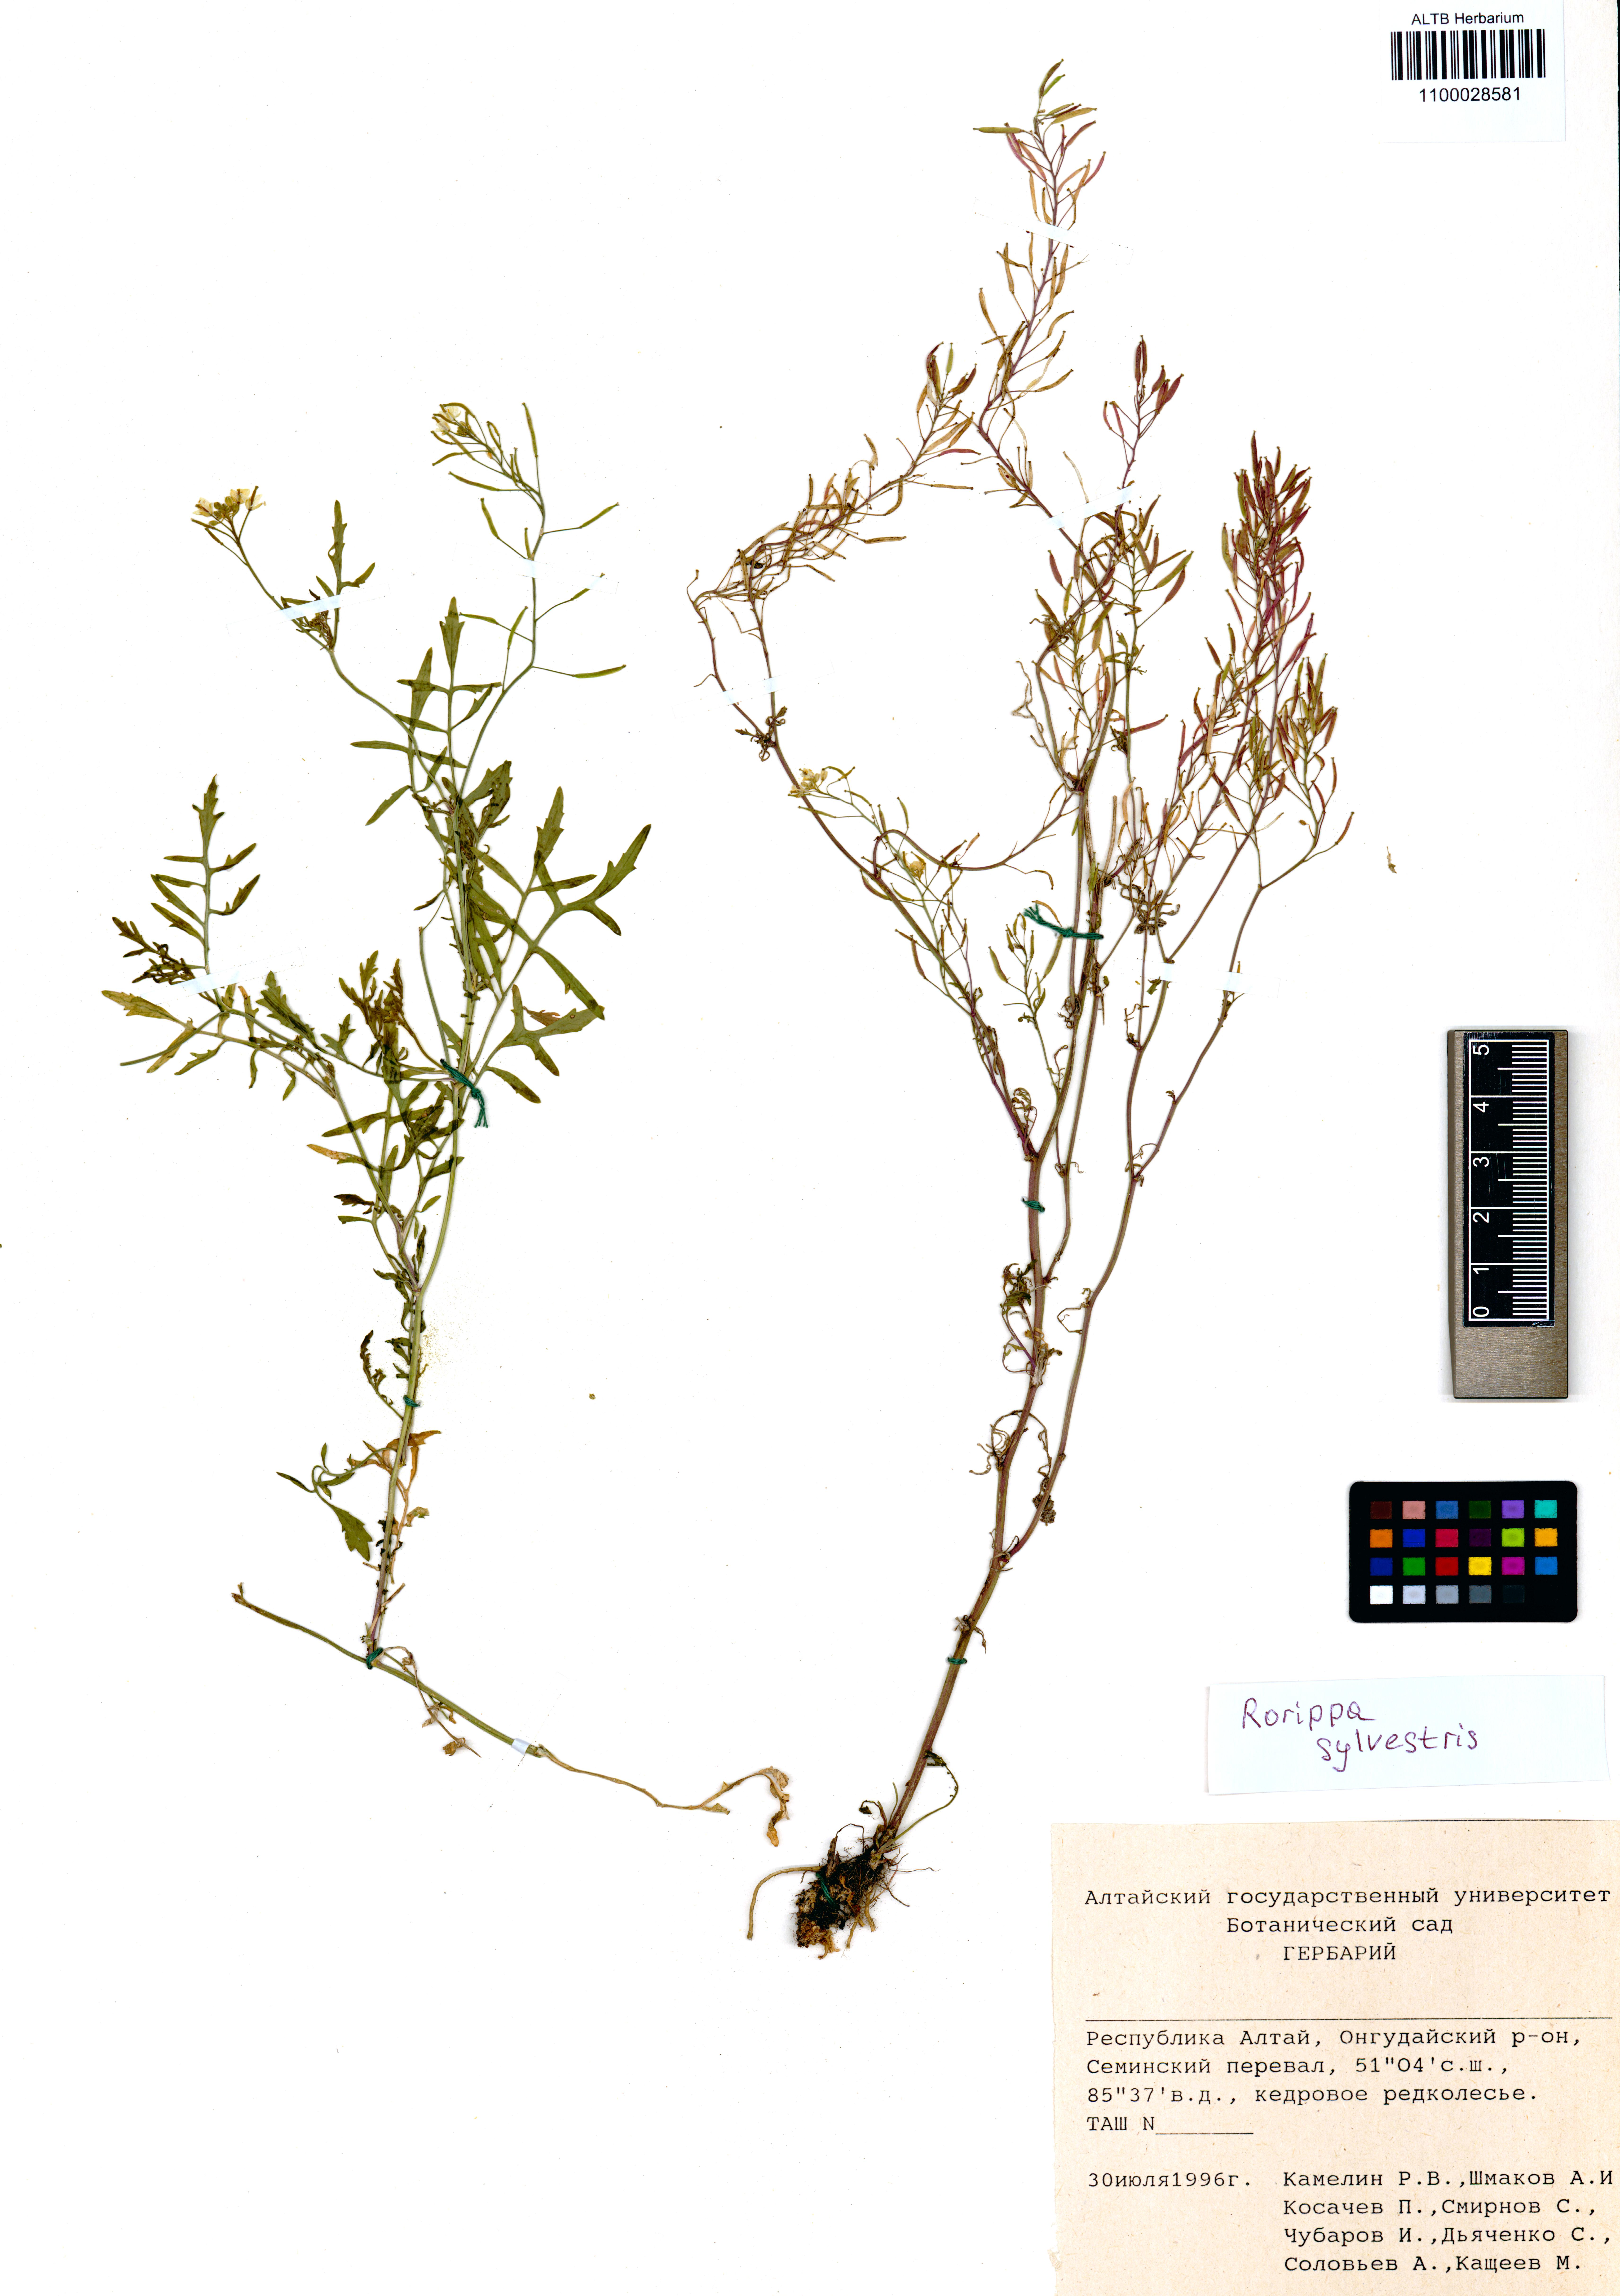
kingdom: Plantae
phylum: Tracheophyta
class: Magnoliopsida
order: Brassicales
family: Brassicaceae
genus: Rorippa
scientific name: Rorippa sylvestris
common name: Creeping yellowcress
